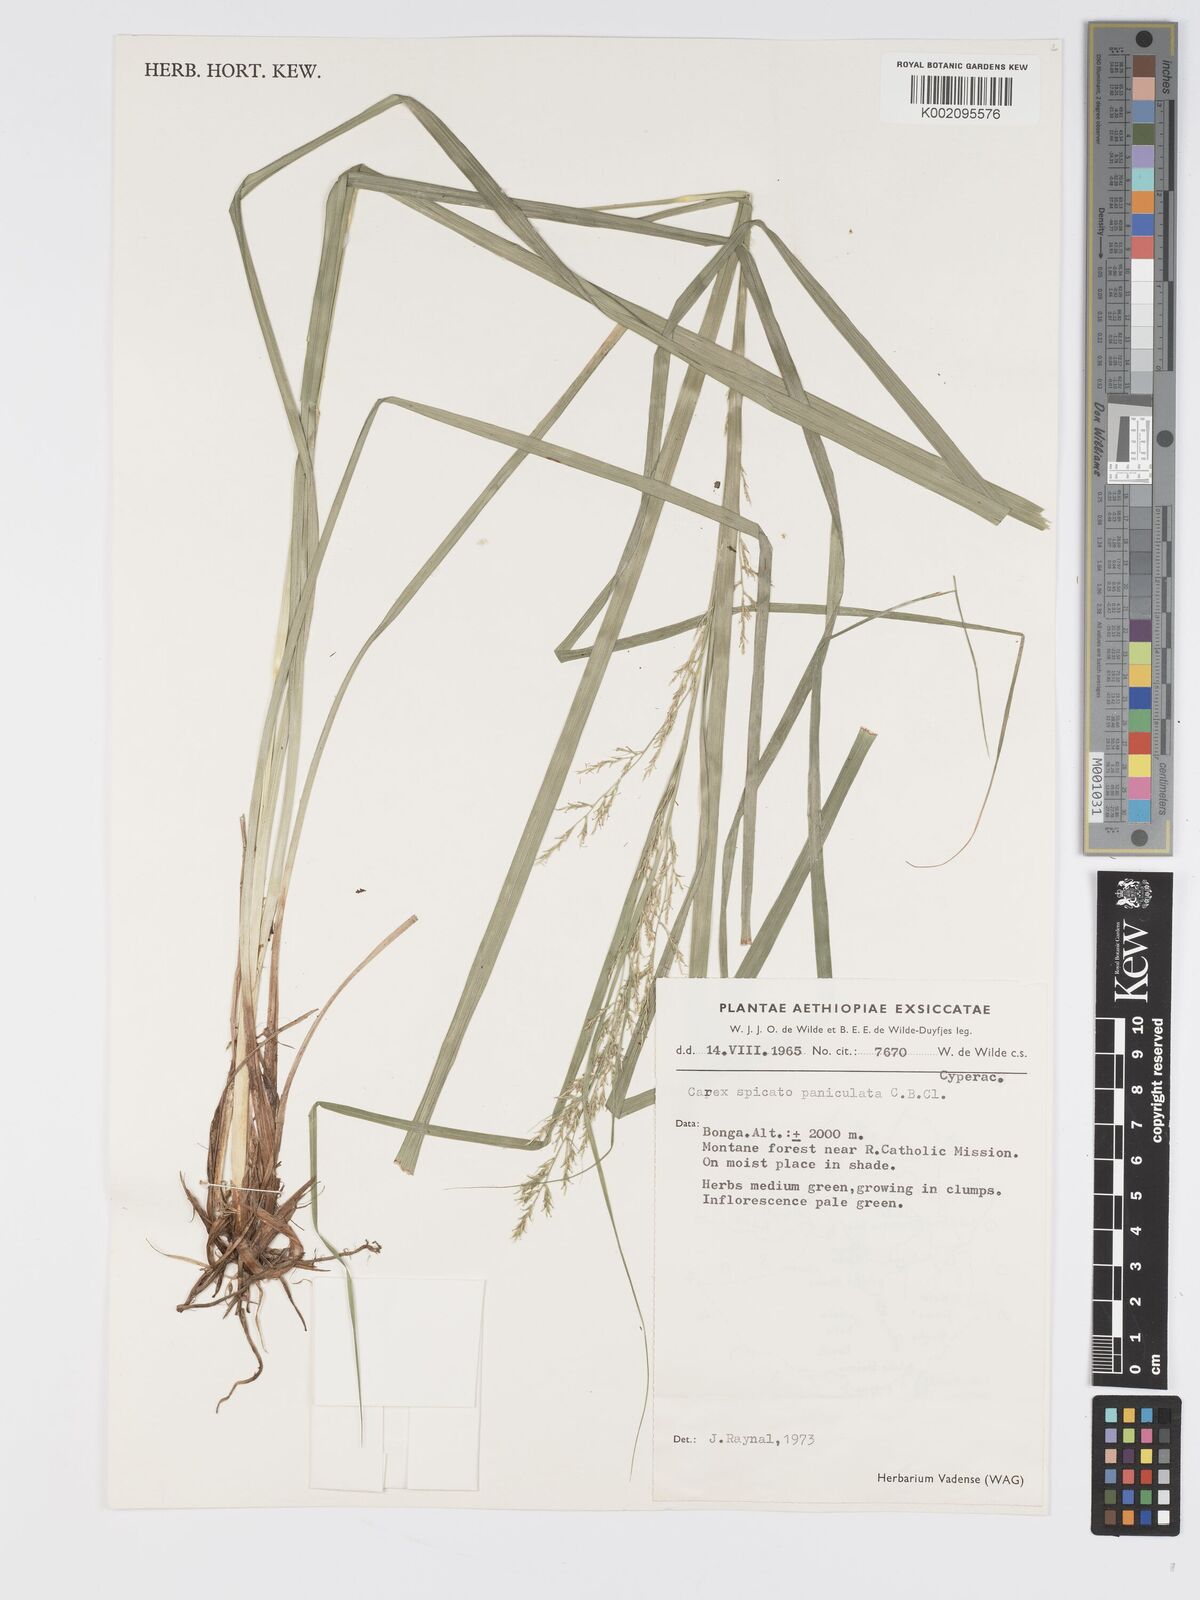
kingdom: Plantae
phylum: Tracheophyta
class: Liliopsida
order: Poales
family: Cyperaceae
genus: Carex
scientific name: Carex chlorosaccus
